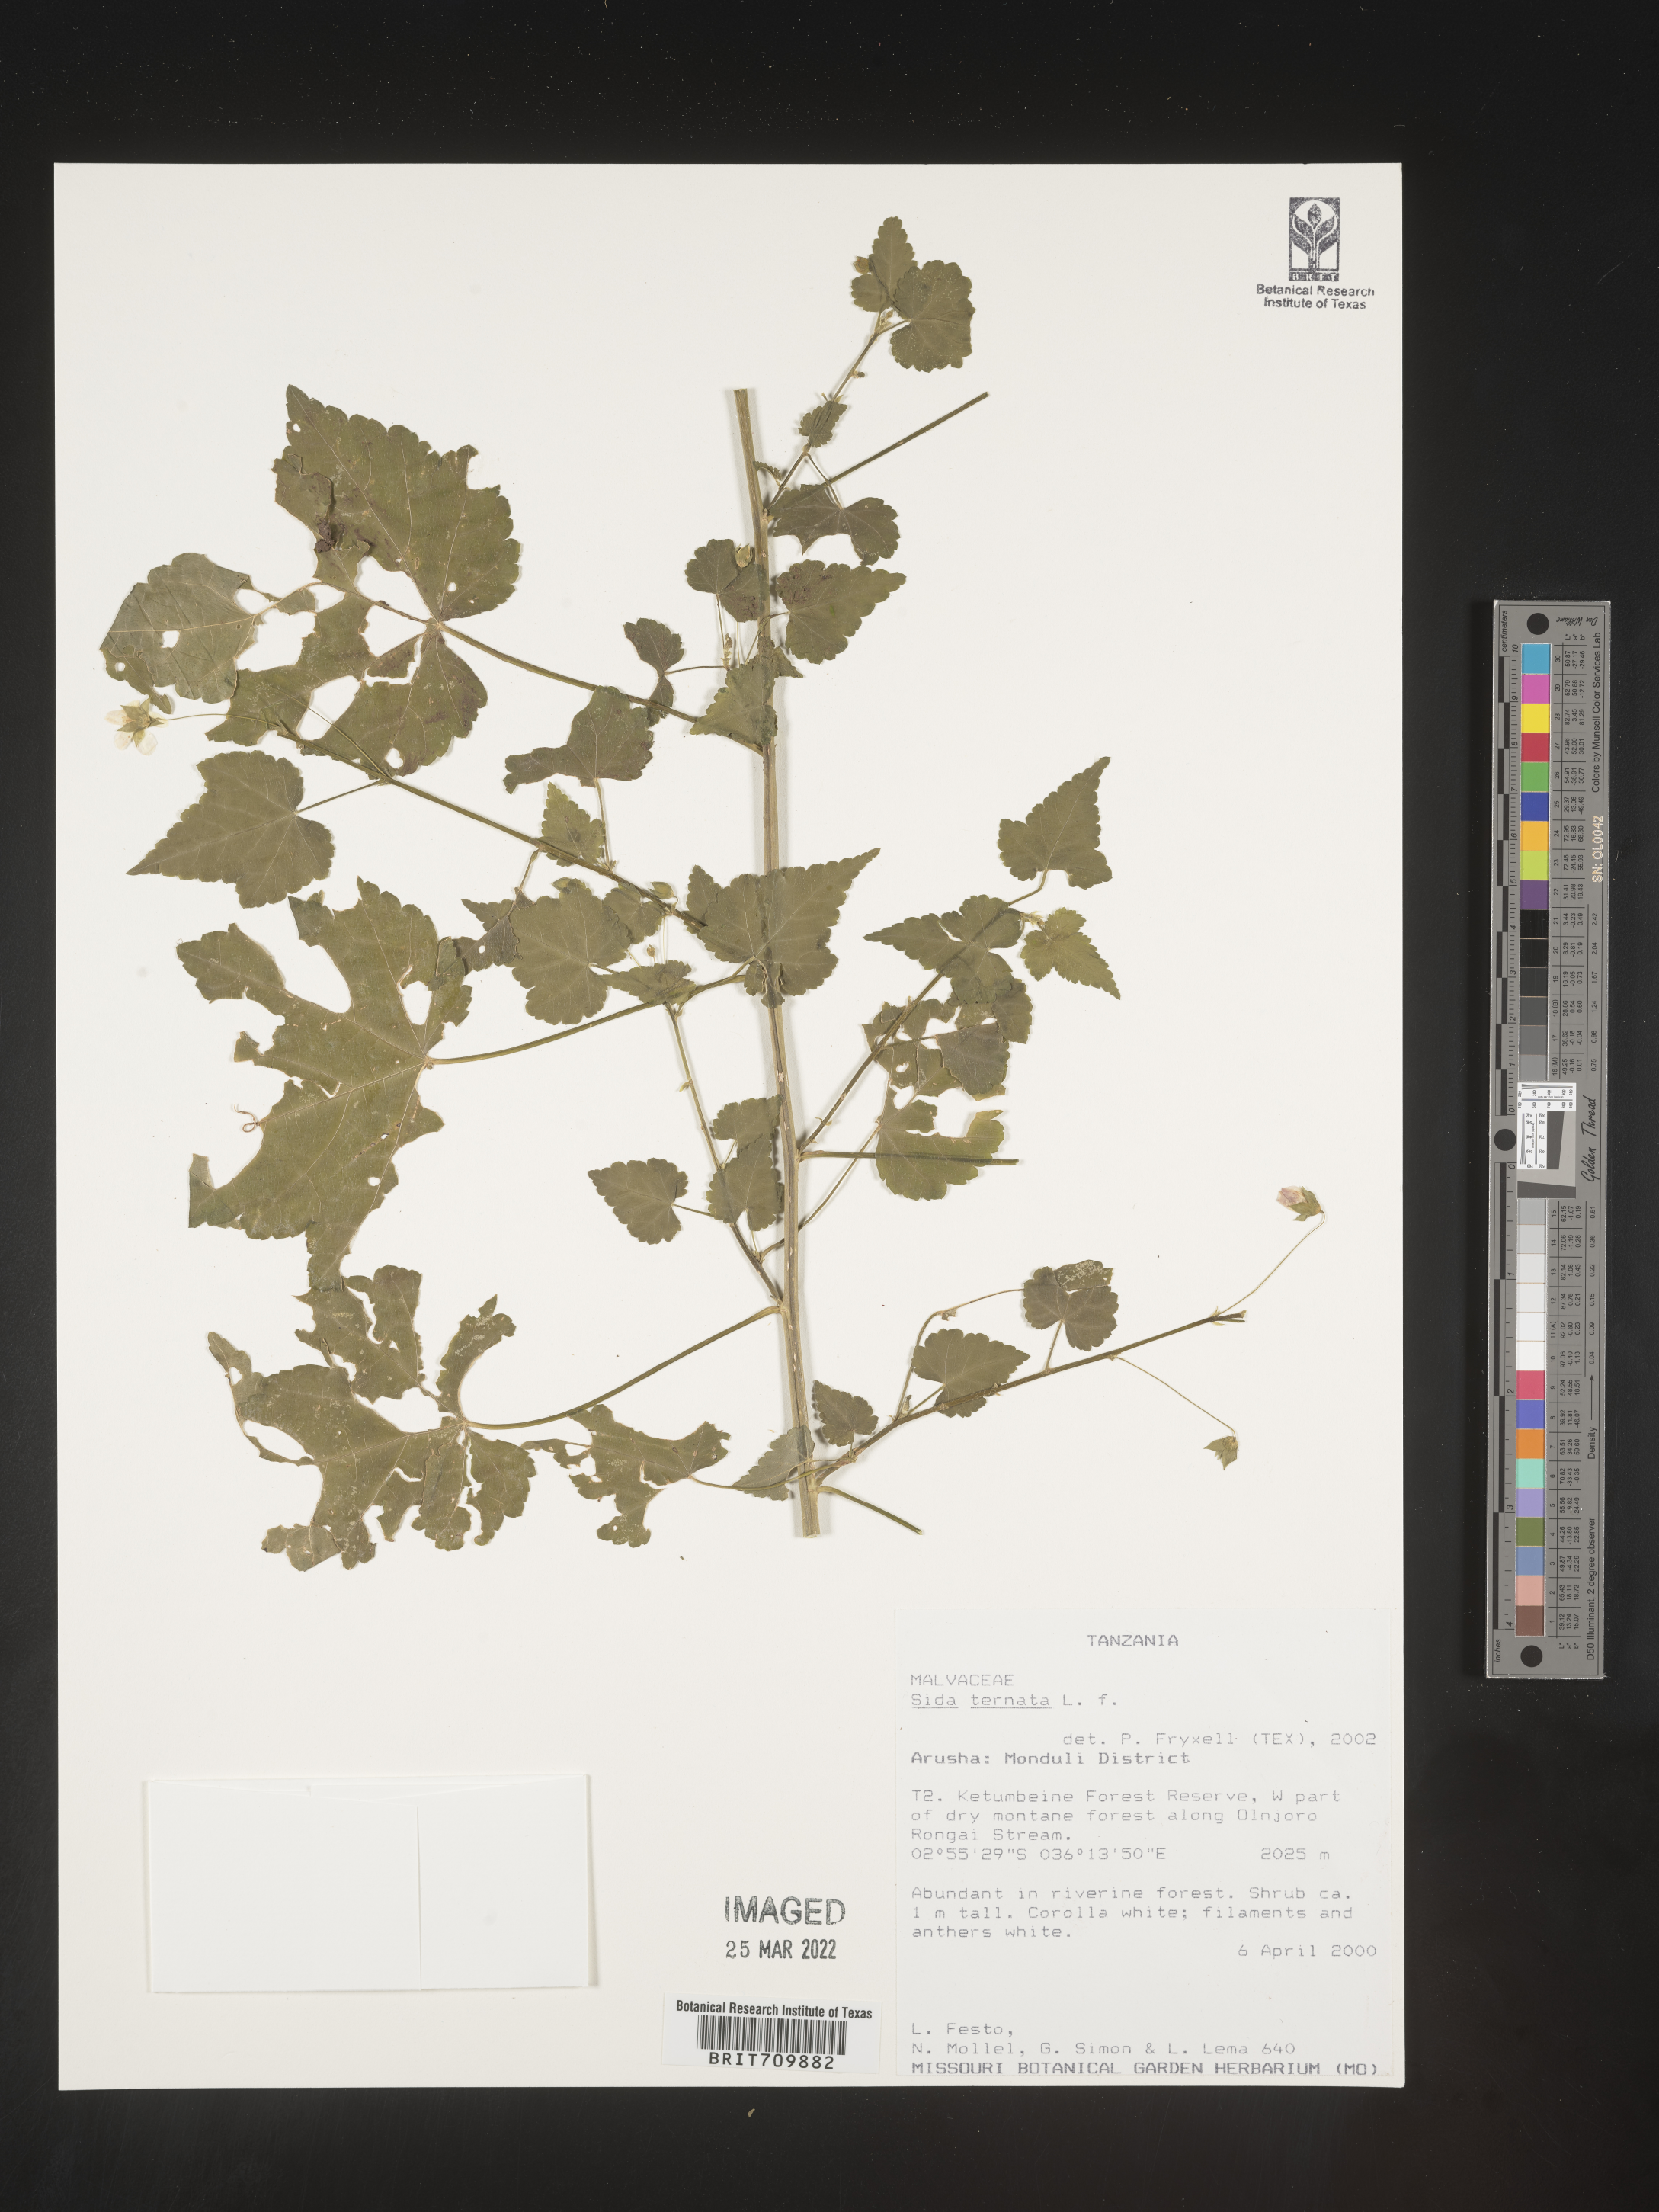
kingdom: Plantae
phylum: Tracheophyta
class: Magnoliopsida
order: Malvales
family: Malvaceae
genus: Sida
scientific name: Sida
